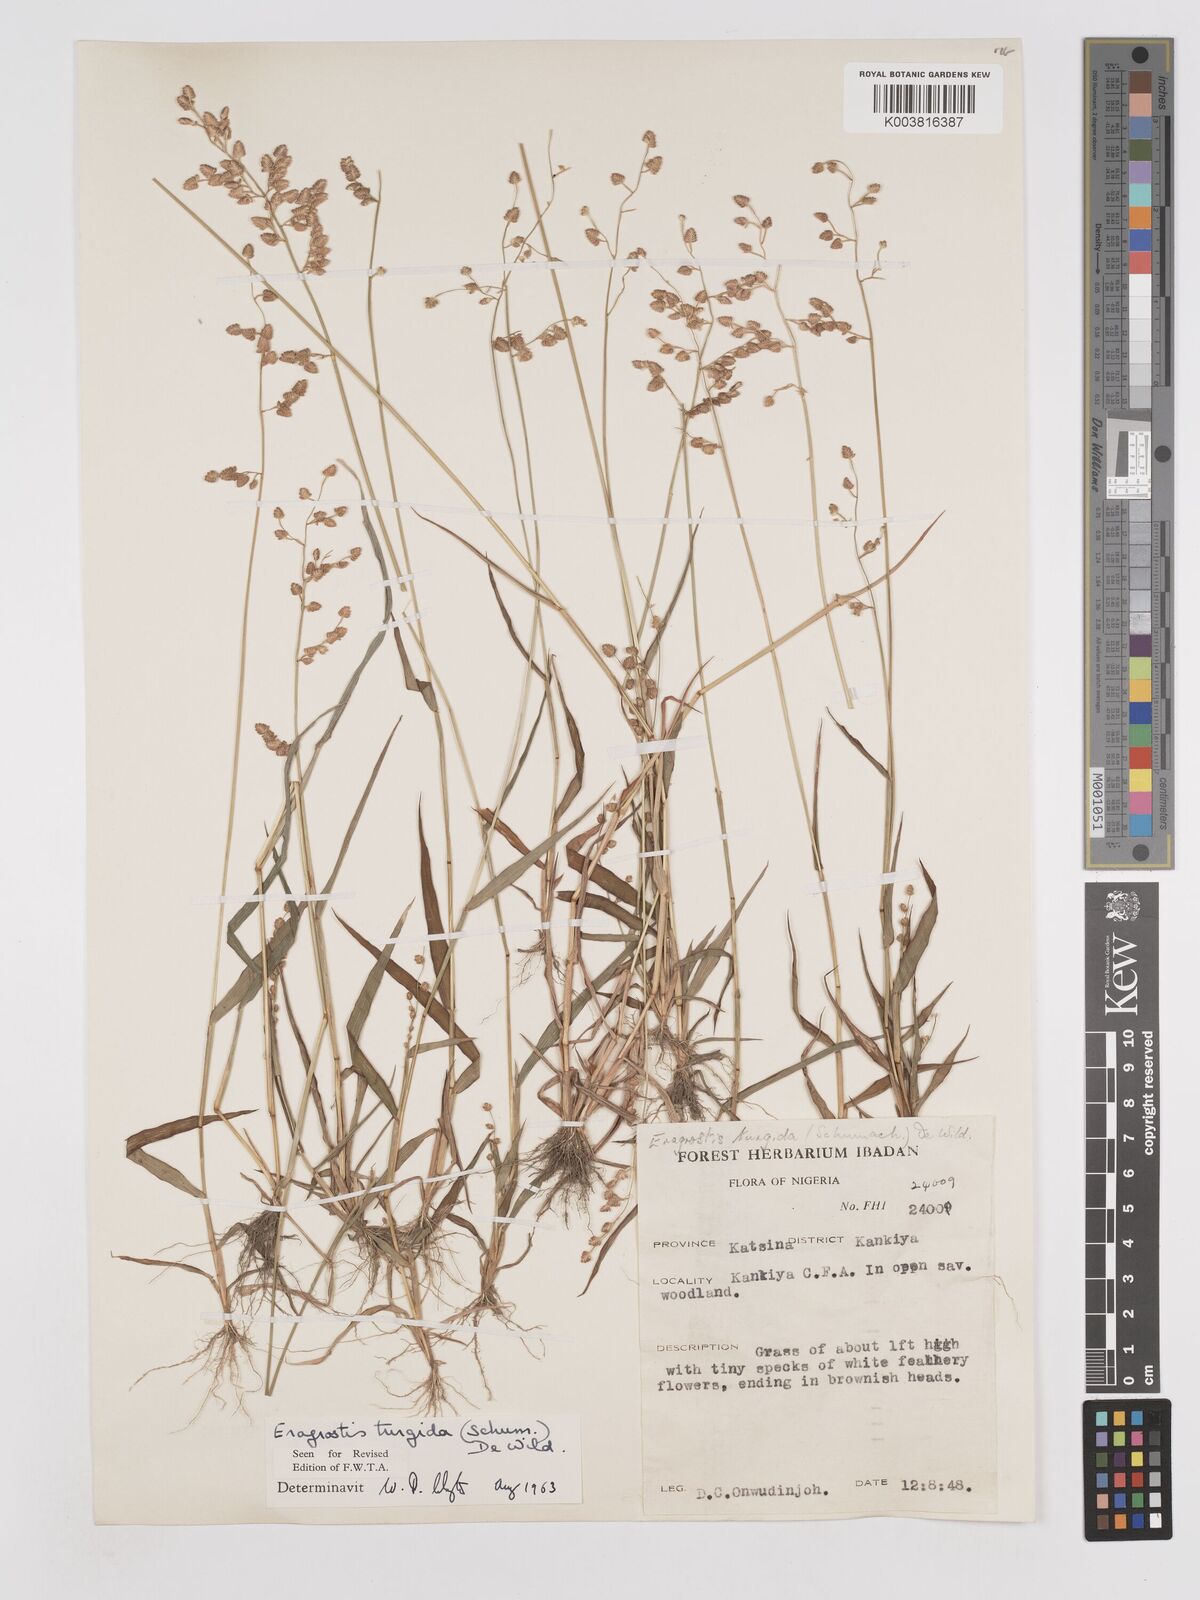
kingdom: Plantae
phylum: Tracheophyta
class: Liliopsida
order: Poales
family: Poaceae
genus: Eragrostis
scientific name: Eragrostis turgida
